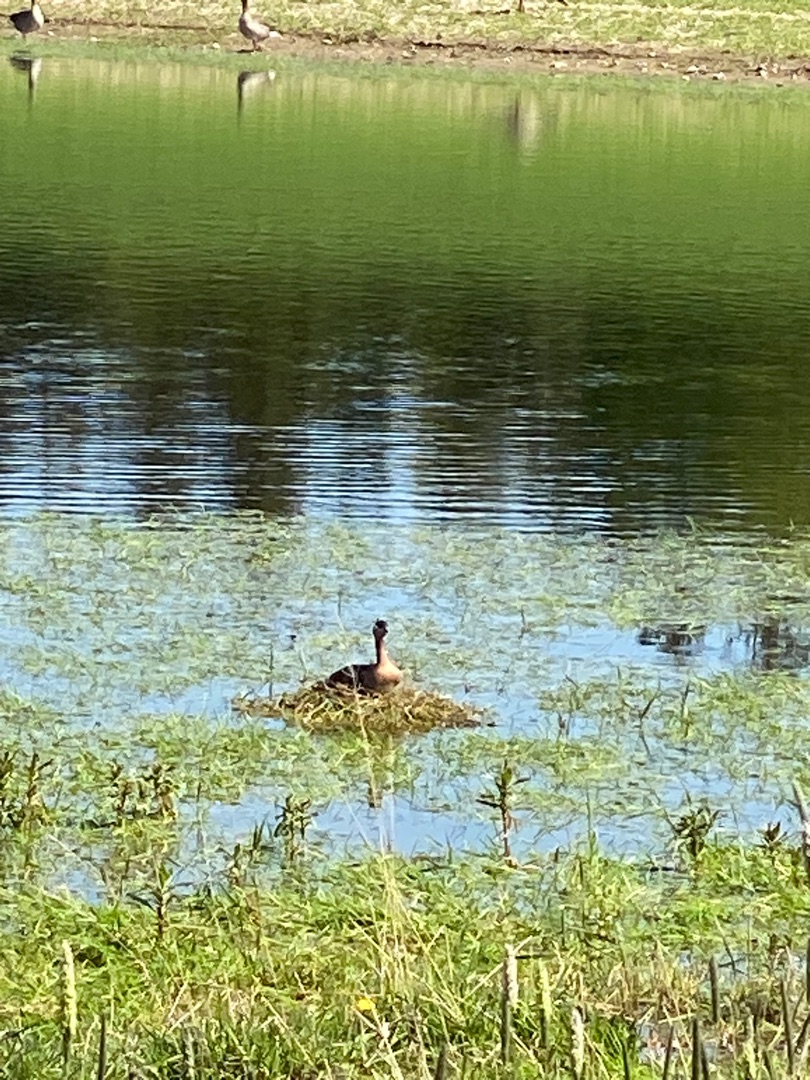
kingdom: Animalia
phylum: Chordata
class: Aves
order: Podicipediformes
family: Podicipedidae
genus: Podiceps
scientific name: Podiceps grisegena
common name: Gråstrubet lappedykker
